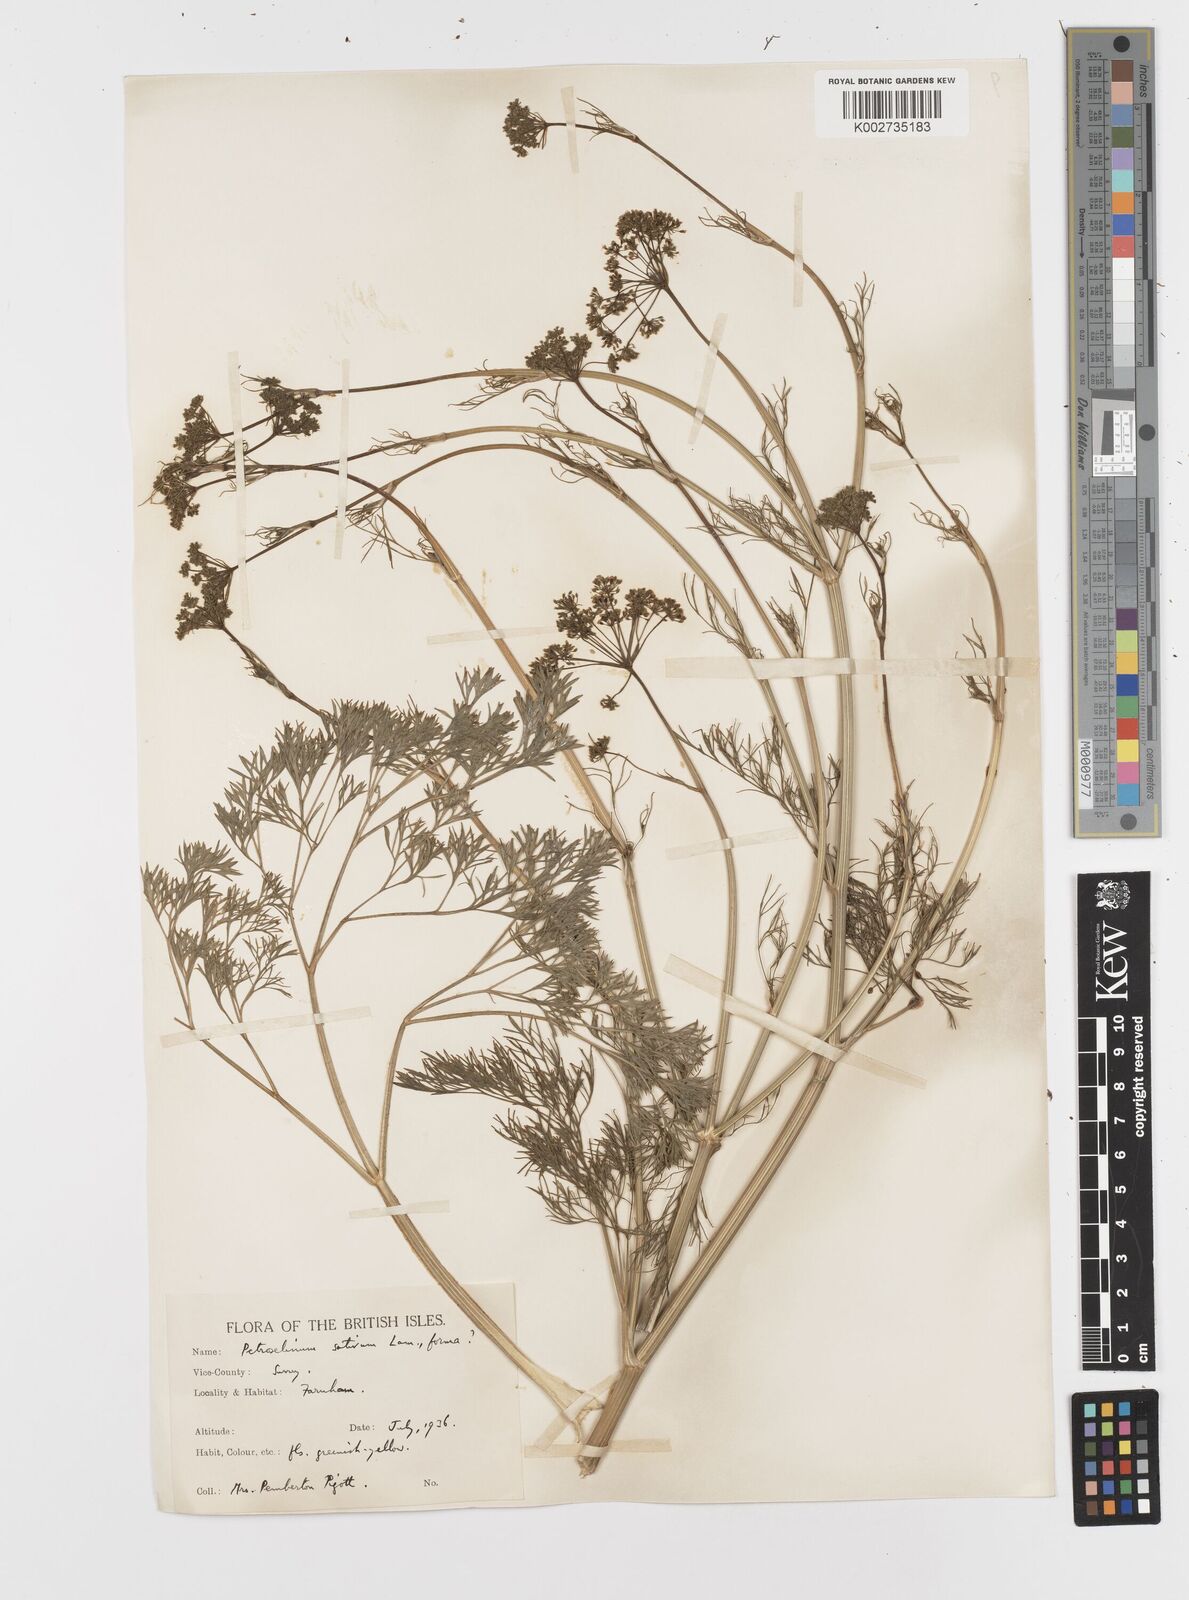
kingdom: Plantae
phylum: Tracheophyta
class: Magnoliopsida
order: Apiales
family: Apiaceae
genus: Petroselinum
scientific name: Petroselinum crispum
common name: Parsley
